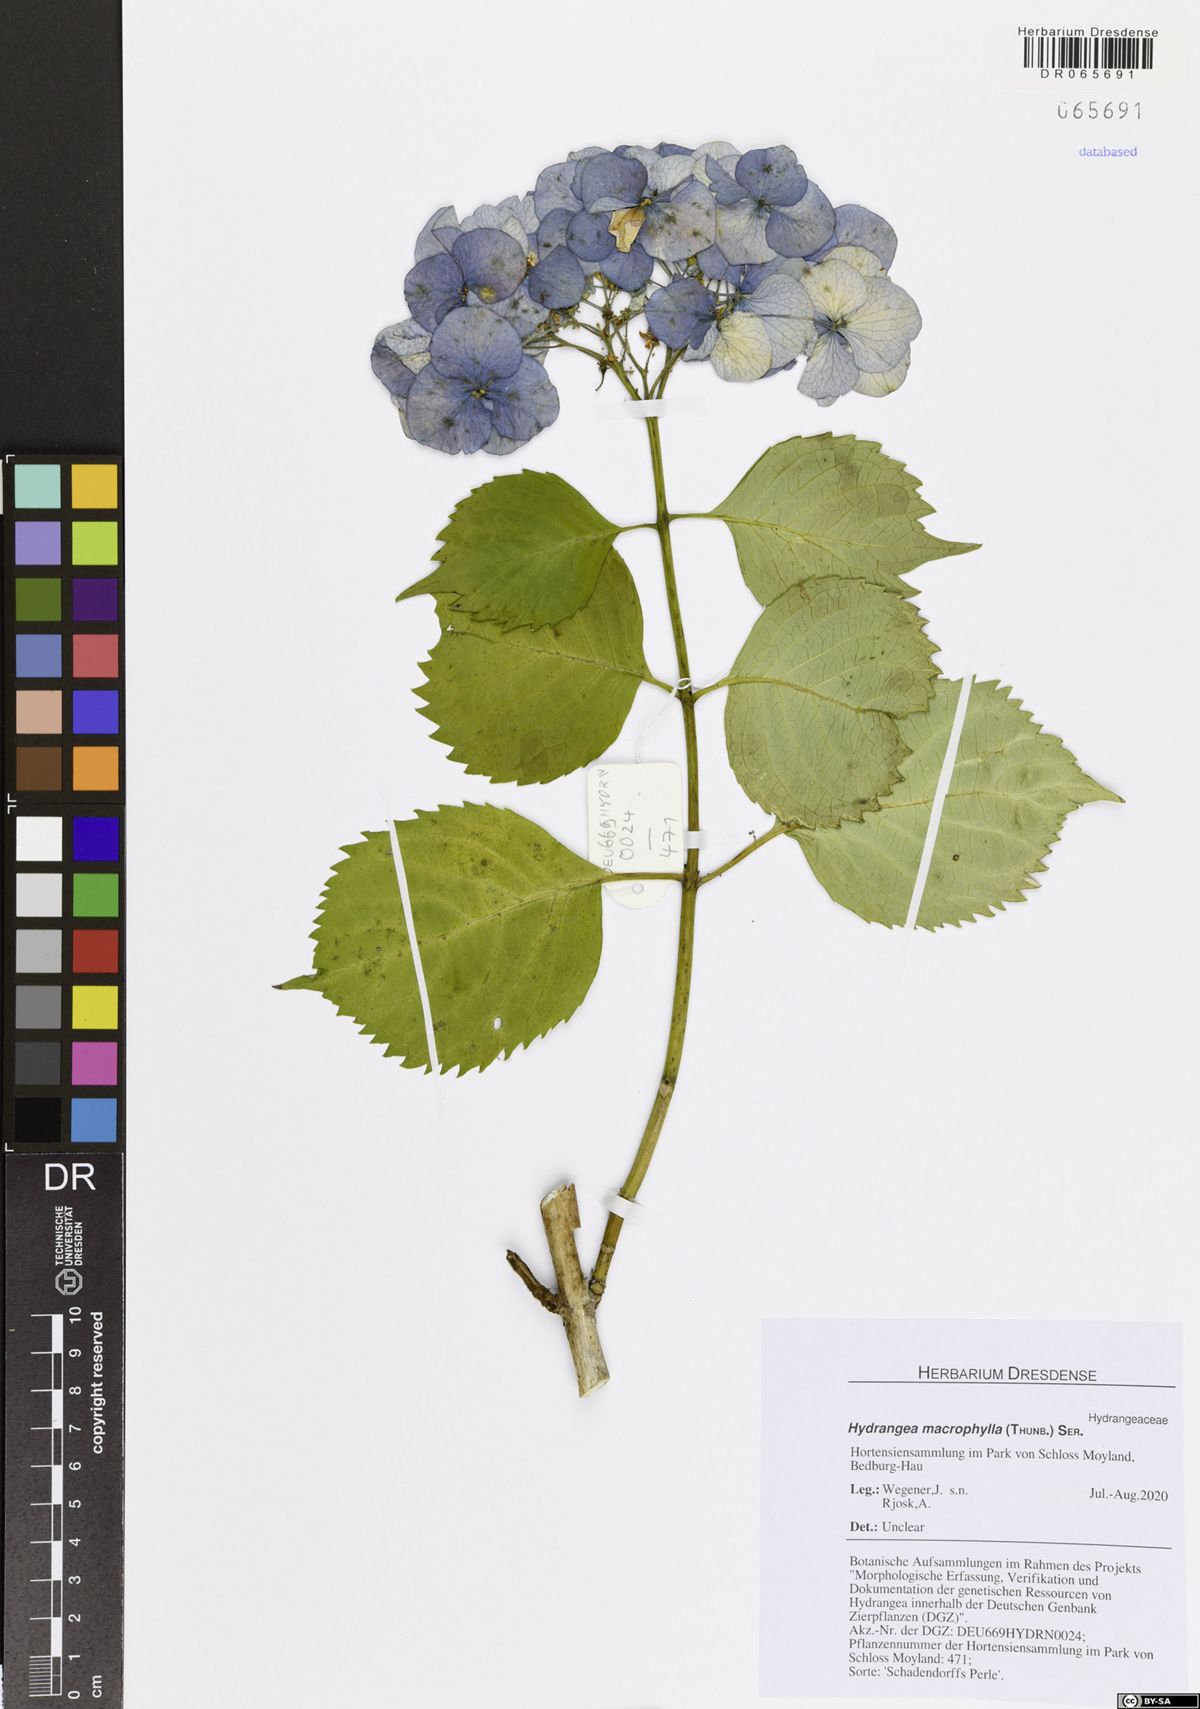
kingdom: Plantae
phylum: Tracheophyta
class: Magnoliopsida
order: Cornales
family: Hydrangeaceae
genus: Hydrangea
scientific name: Hydrangea macrophylla
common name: Hydrangea
